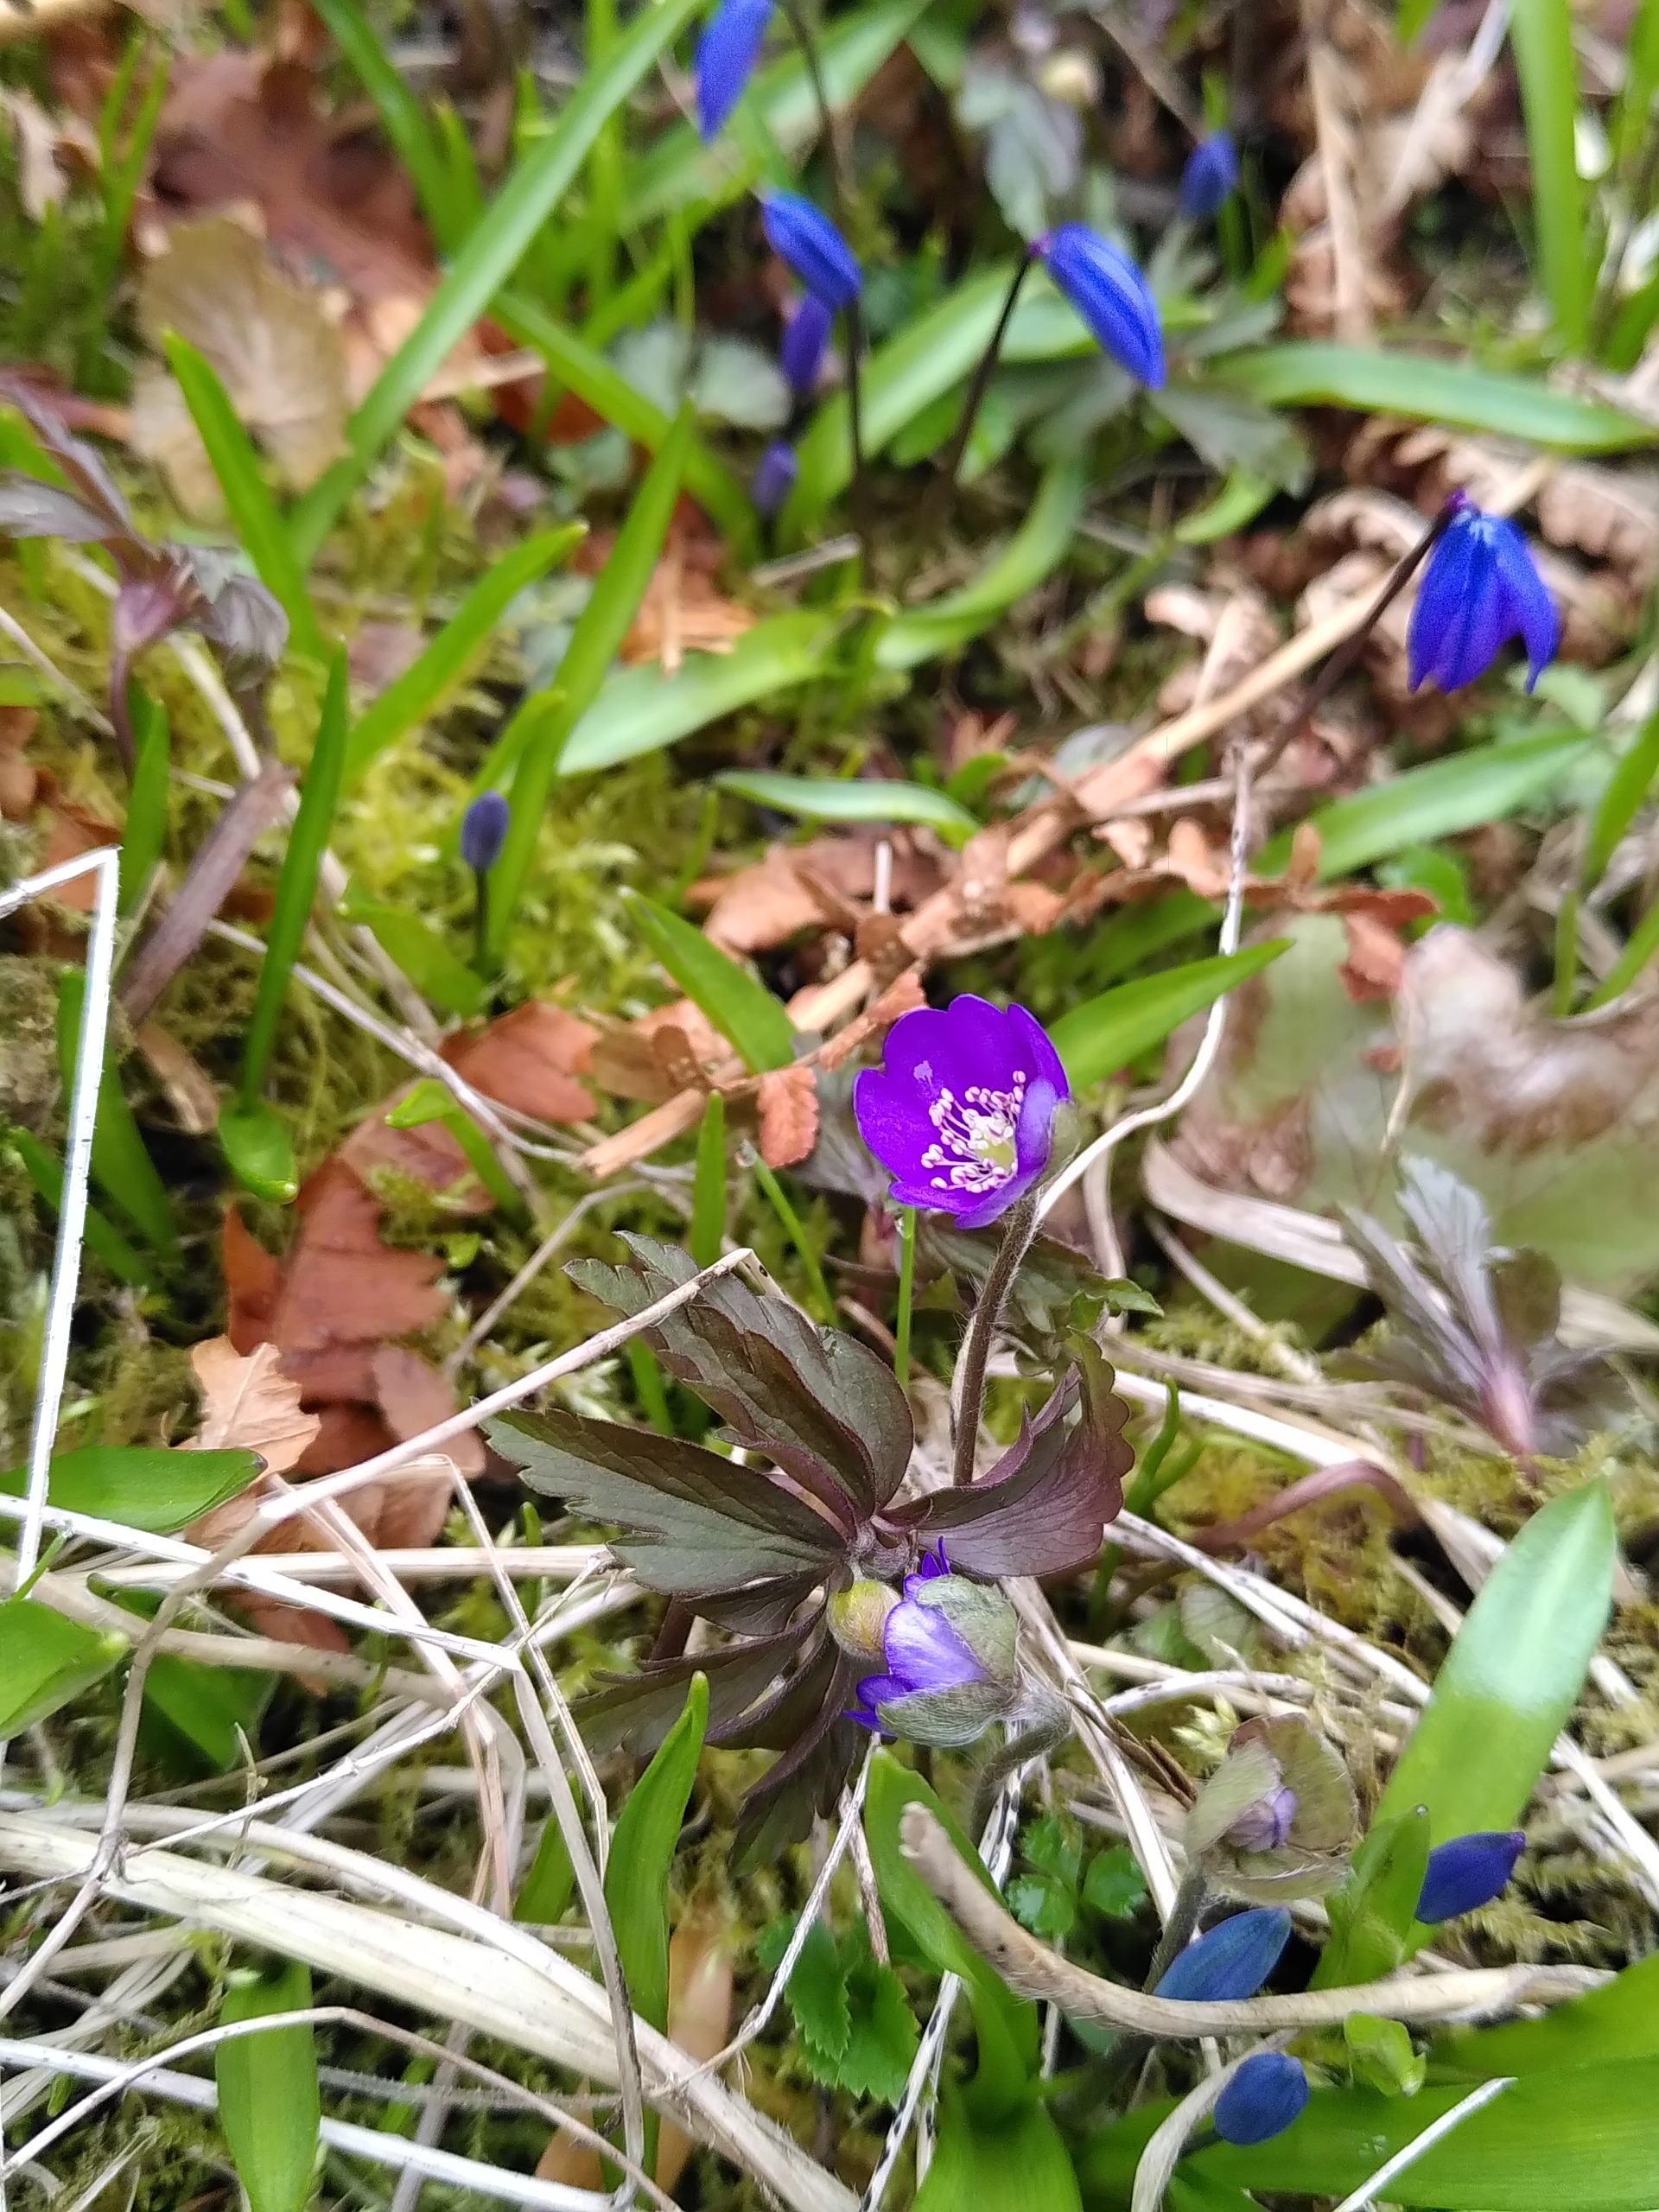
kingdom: Plantae
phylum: Tracheophyta
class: Magnoliopsida
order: Ranunculales
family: Ranunculaceae
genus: Hepatica
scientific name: Hepatica nobilis
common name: Blå anemone
